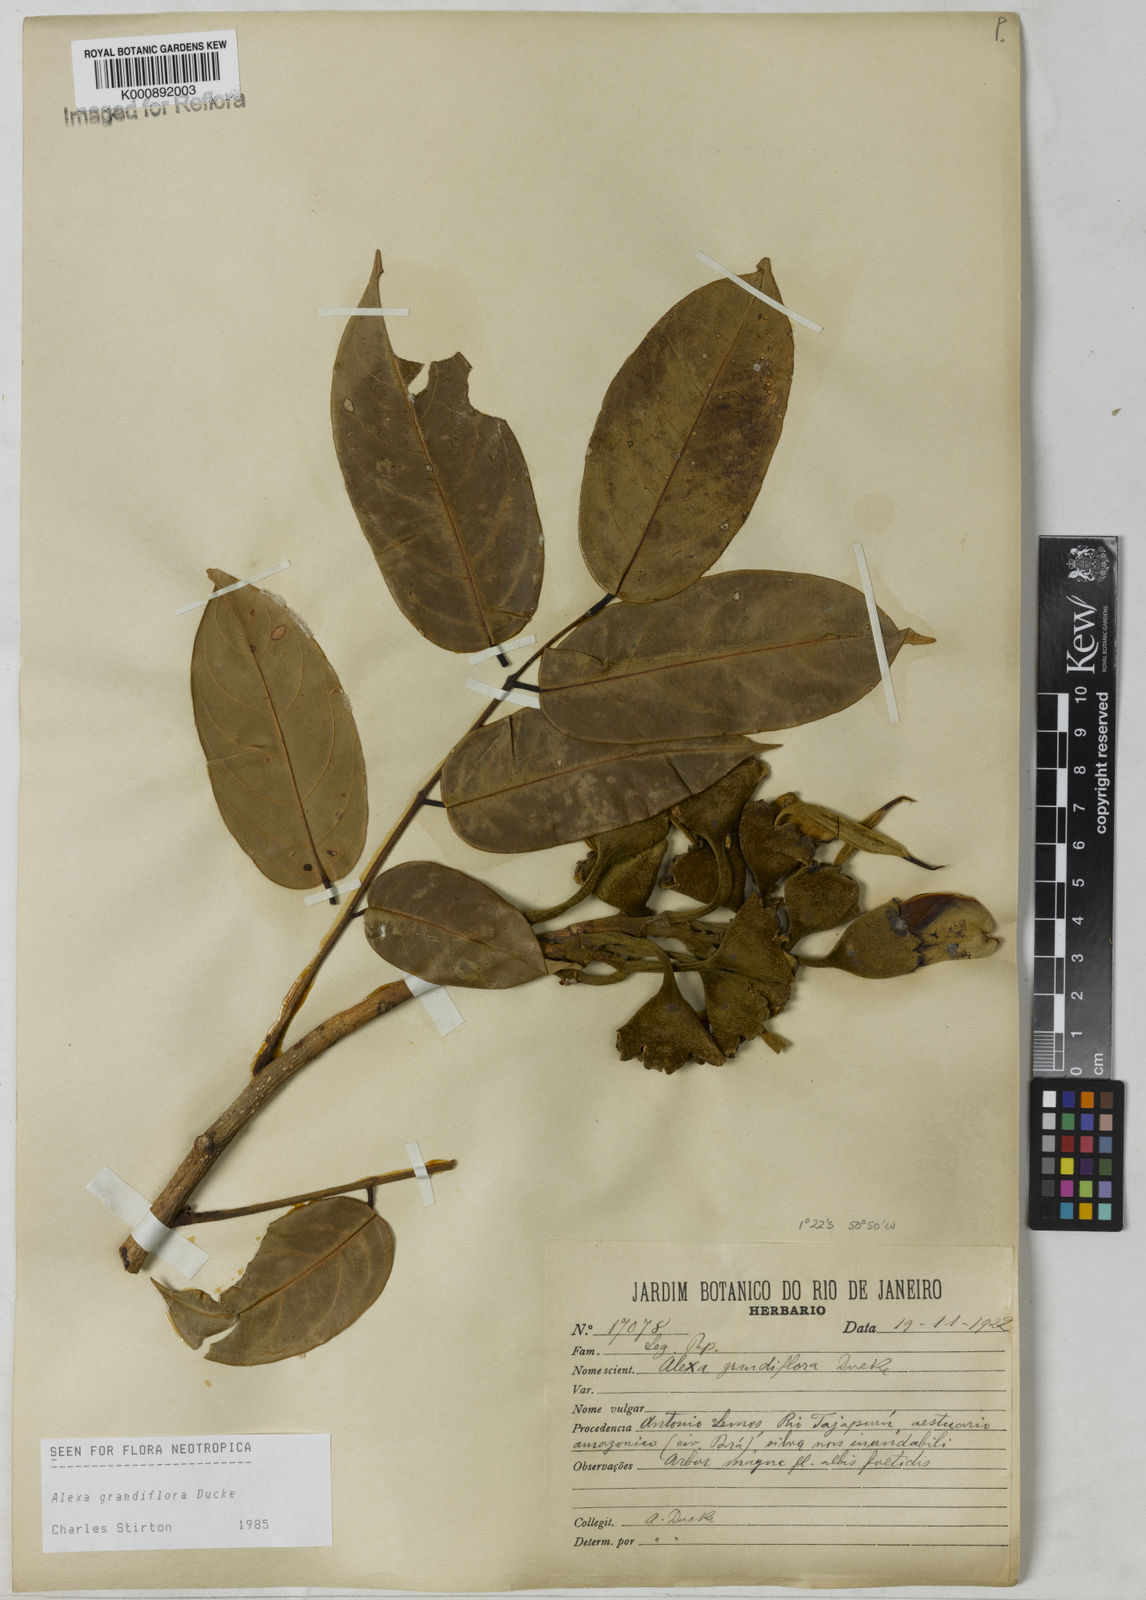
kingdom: Plantae
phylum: Tracheophyta
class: Magnoliopsida
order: Fabales
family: Fabaceae
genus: Alexa
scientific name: Alexa grandiflora
